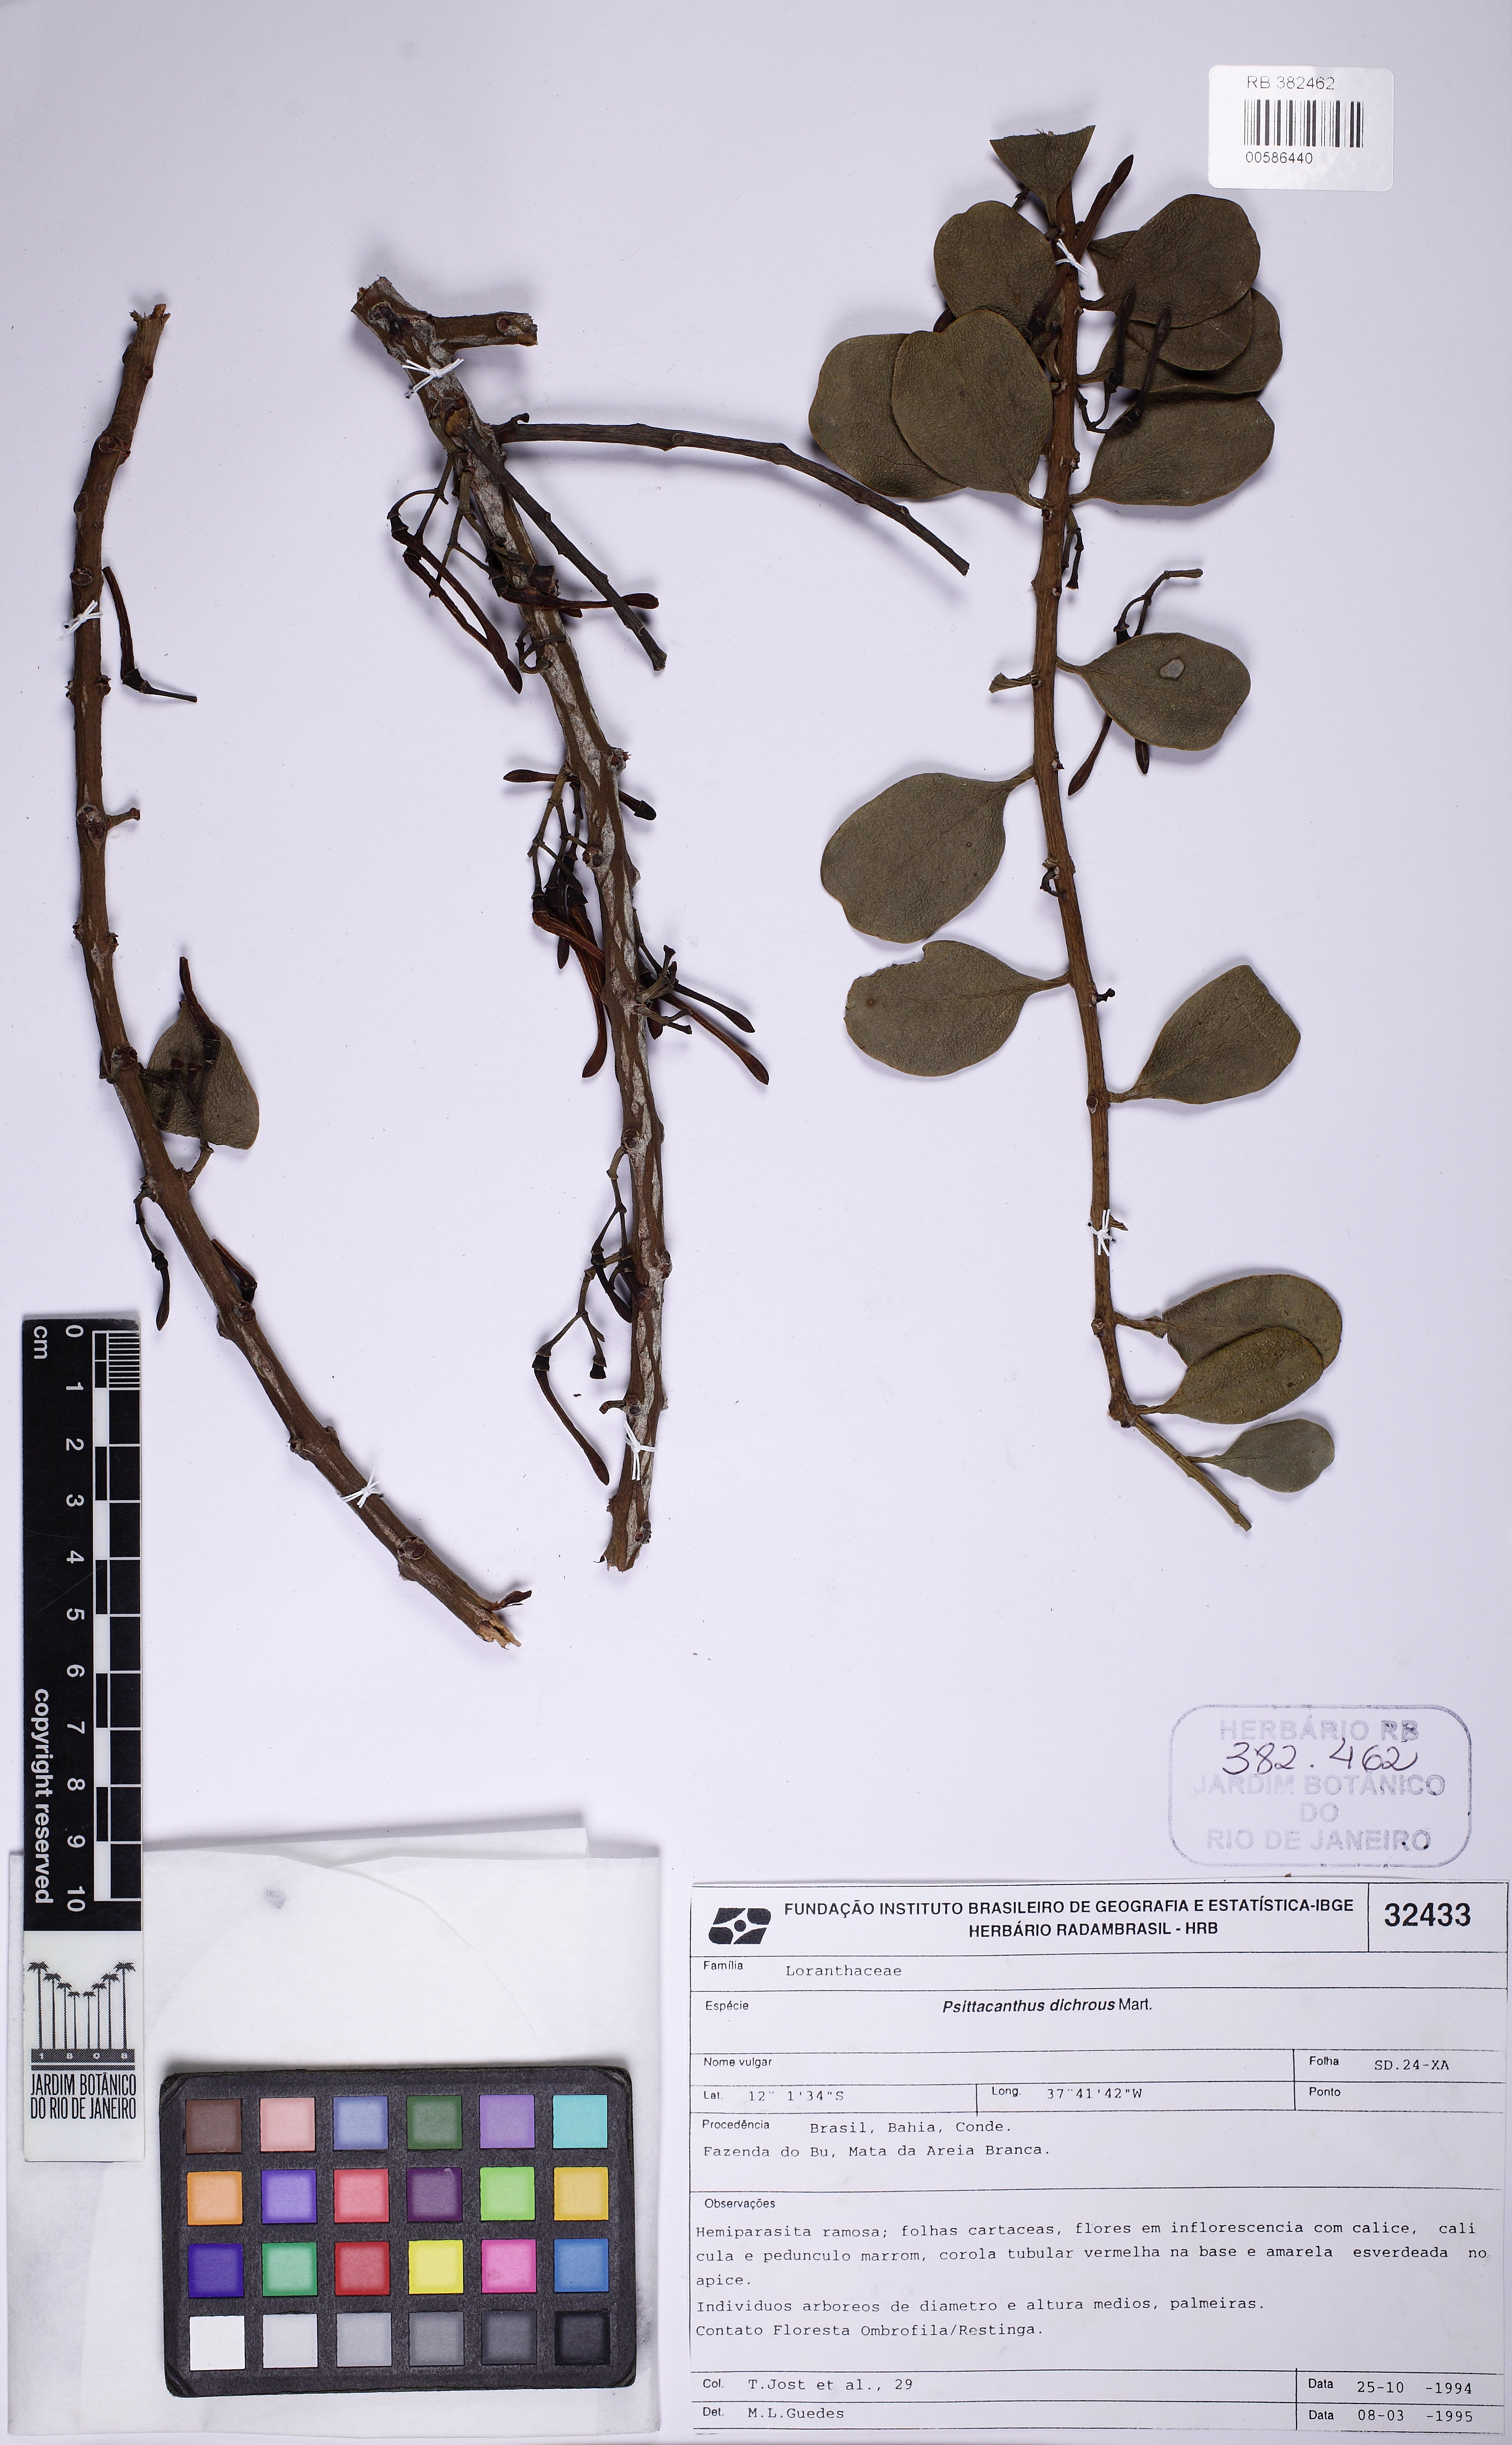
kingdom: Plantae
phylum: Tracheophyta
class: Magnoliopsida
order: Santalales
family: Loranthaceae
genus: Psittacanthus
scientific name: Psittacanthus dichroos
